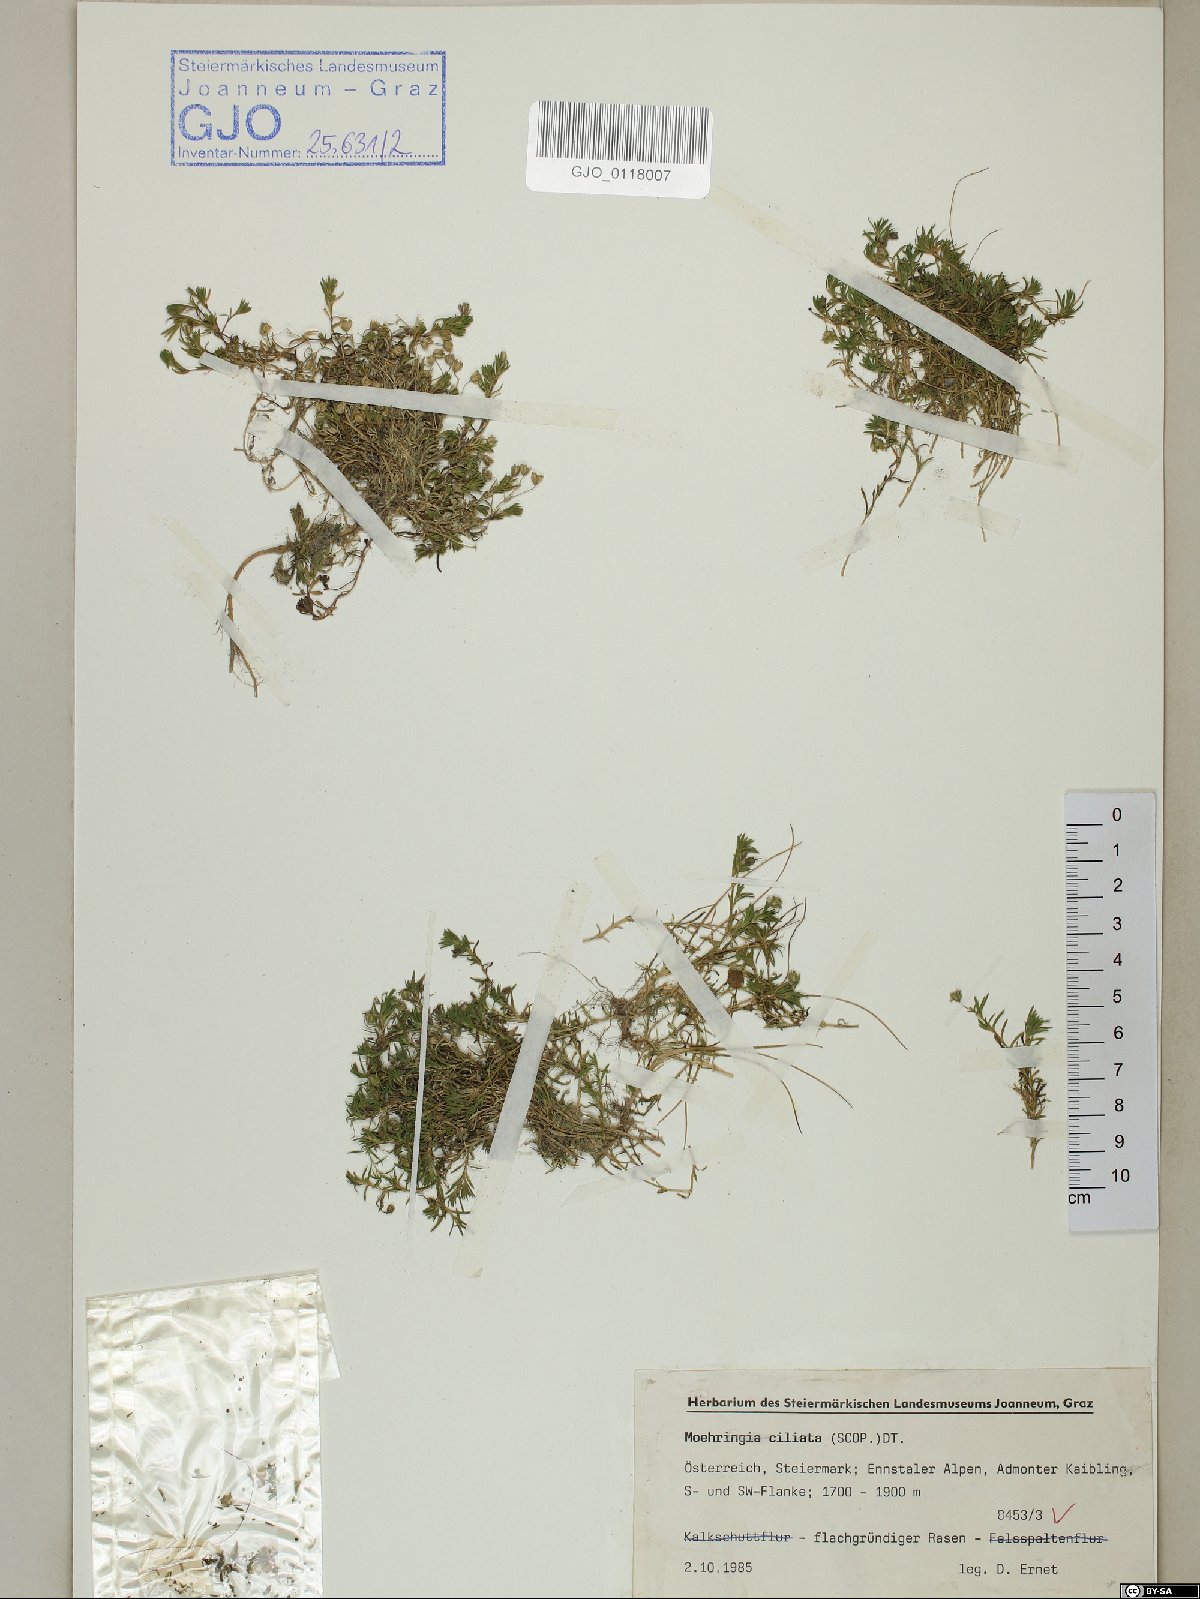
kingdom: Plantae
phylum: Tracheophyta
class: Magnoliopsida
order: Caryophyllales
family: Caryophyllaceae
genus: Moehringia
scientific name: Moehringia ciliata
